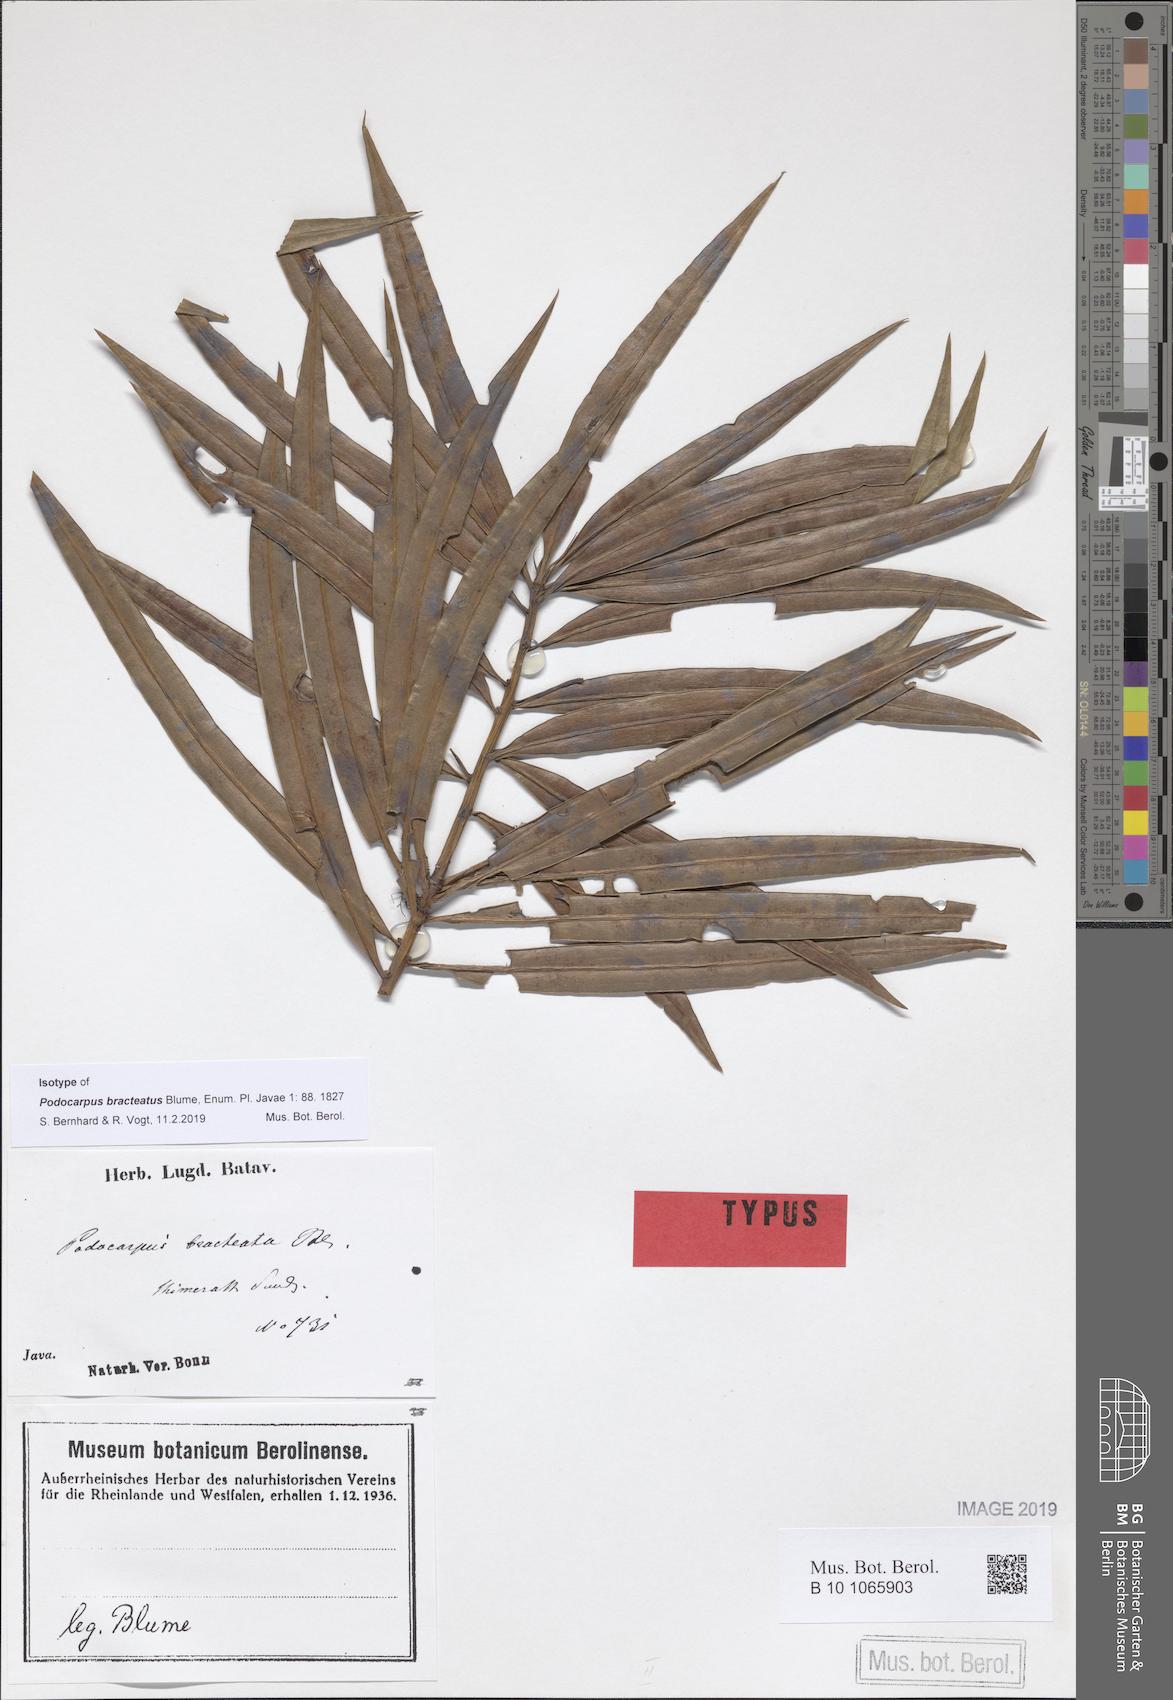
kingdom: Plantae
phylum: Tracheophyta
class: Pinopsida
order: Pinales
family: Podocarpaceae
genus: Podocarpus
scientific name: Podocarpus bracteatus
